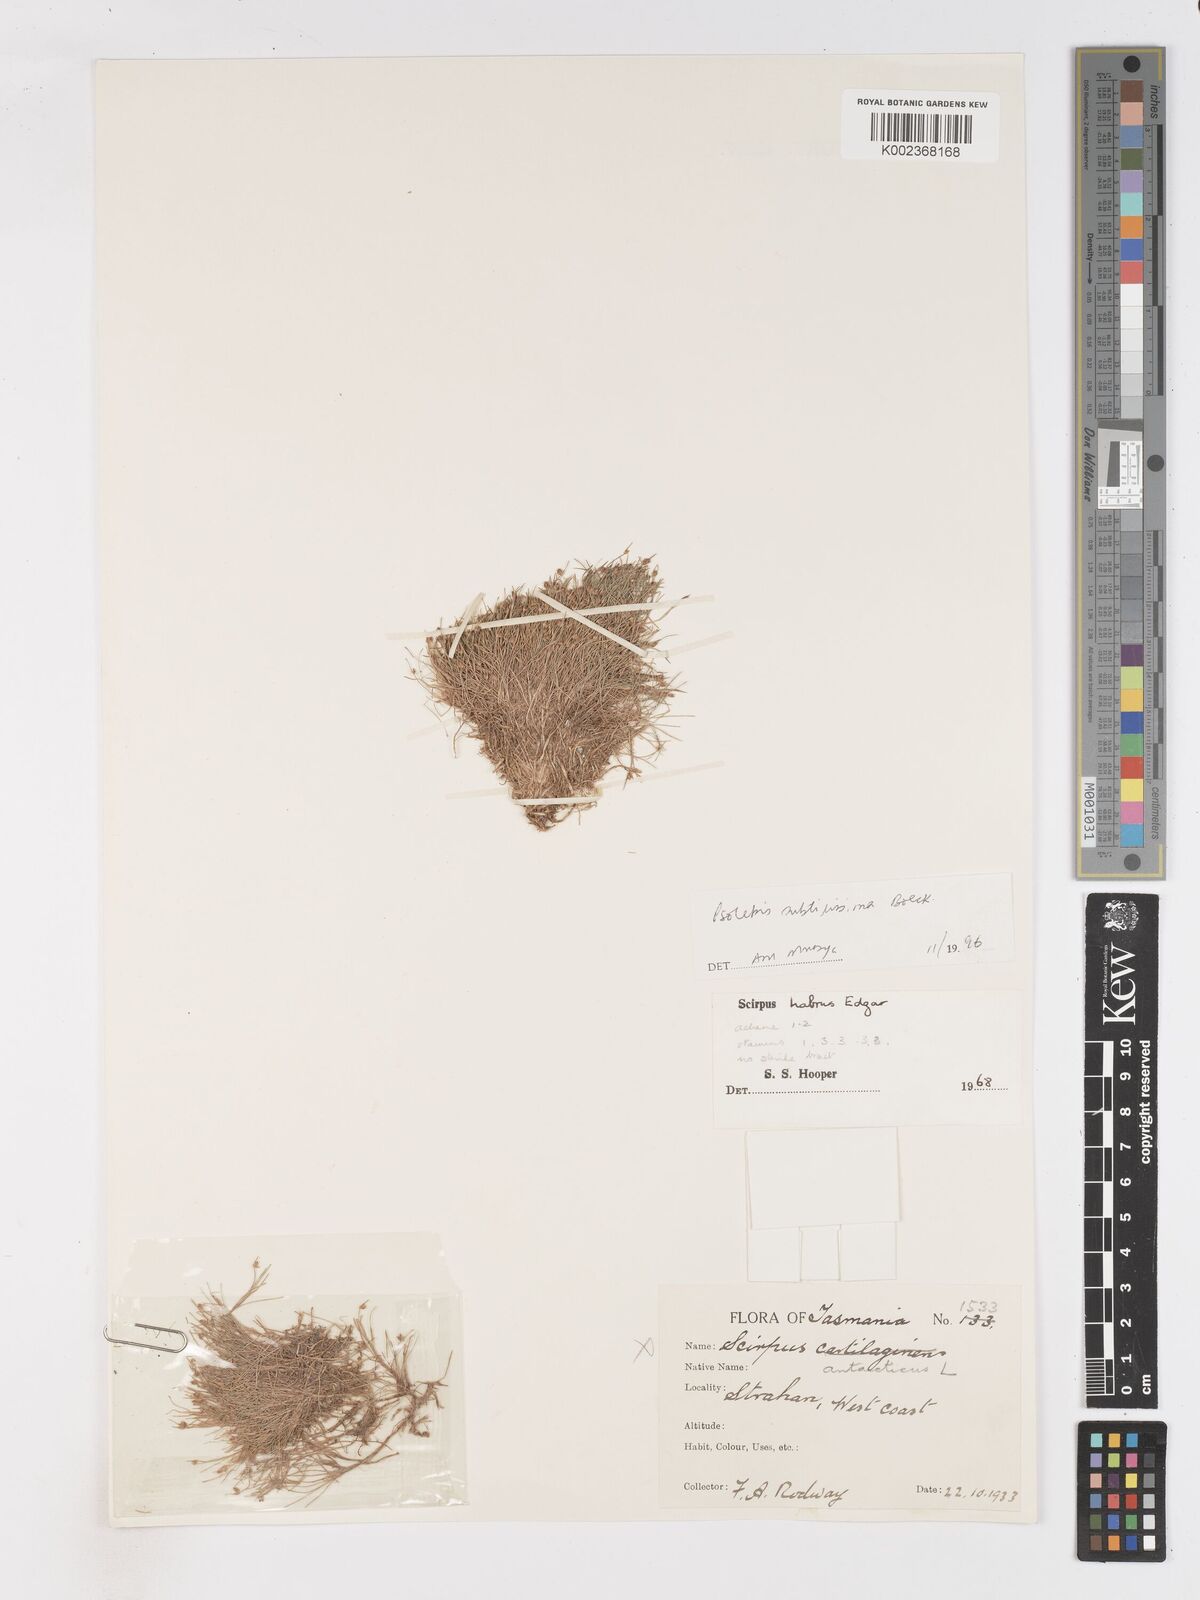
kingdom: Plantae
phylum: Tracheophyta
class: Liliopsida
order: Poales
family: Cyperaceae
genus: Isolepis
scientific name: Isolepis subtilissima
